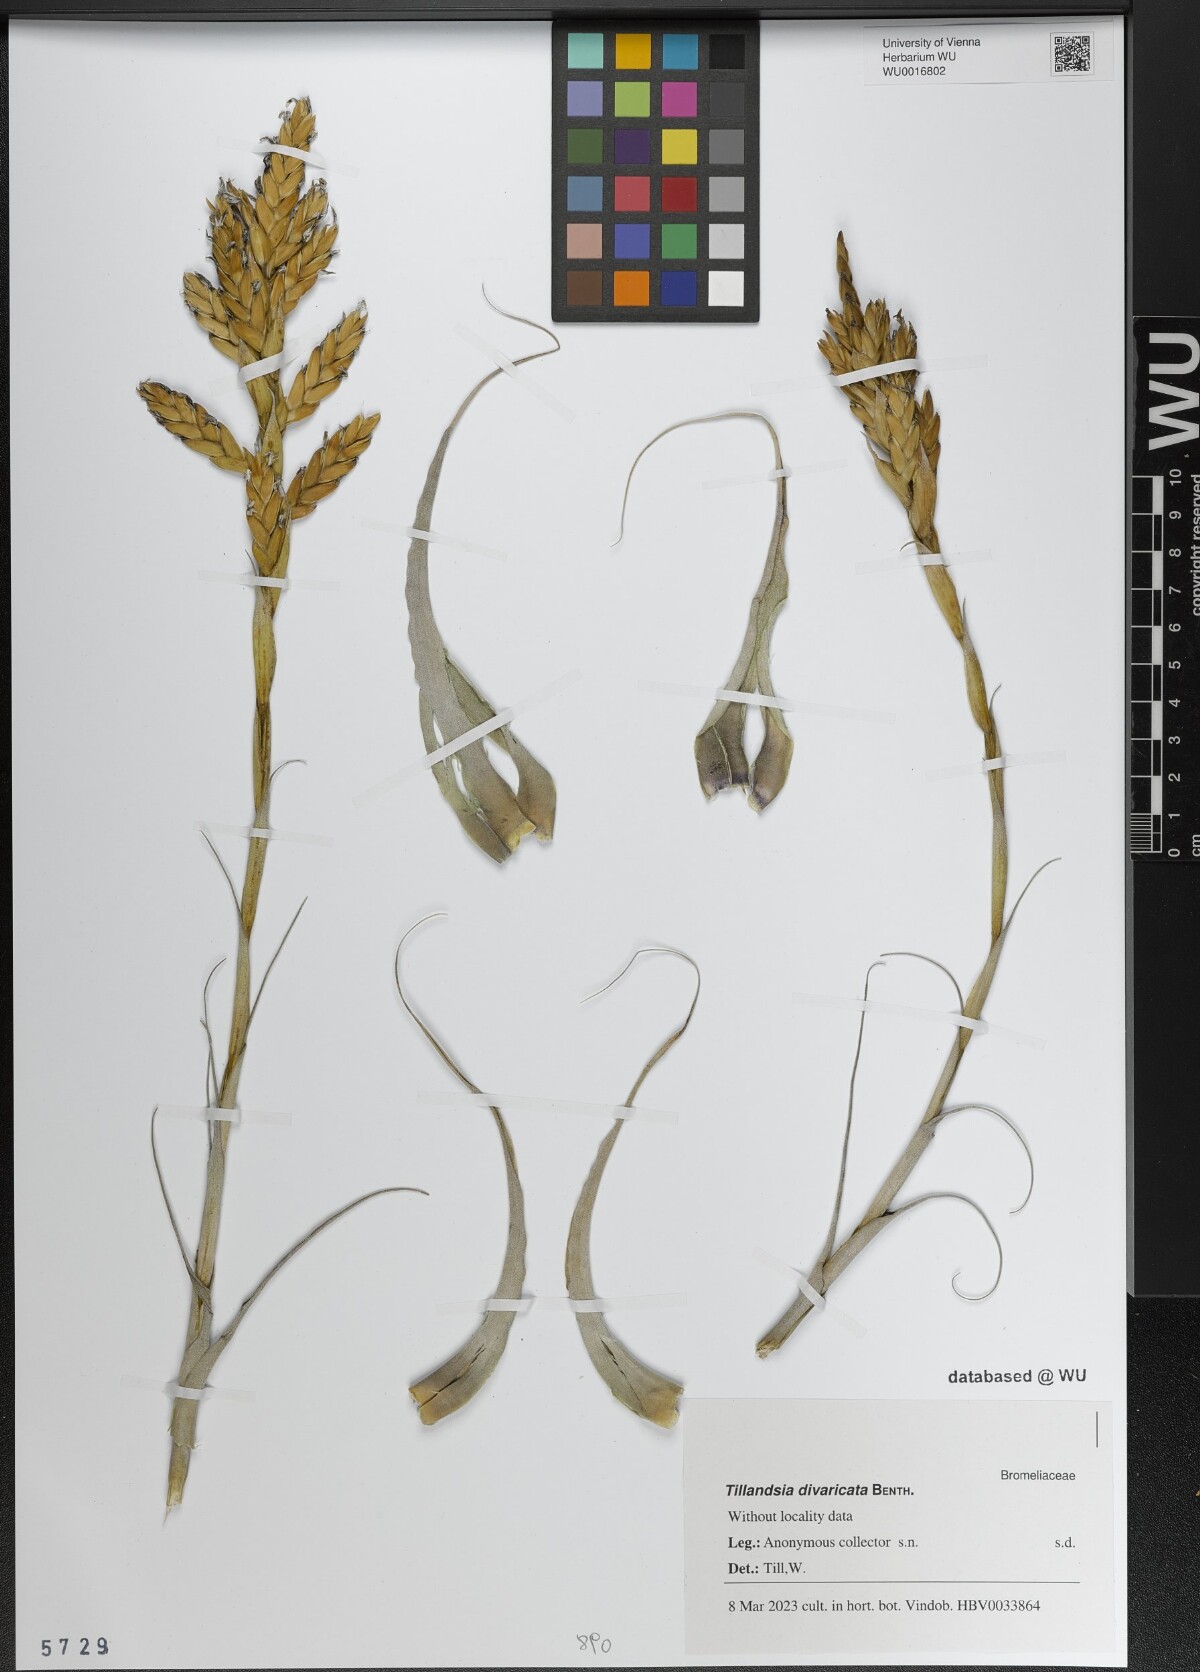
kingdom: Plantae
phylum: Tracheophyta
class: Liliopsida
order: Poales
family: Bromeliaceae
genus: Tillandsia
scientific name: Tillandsia latifolia
